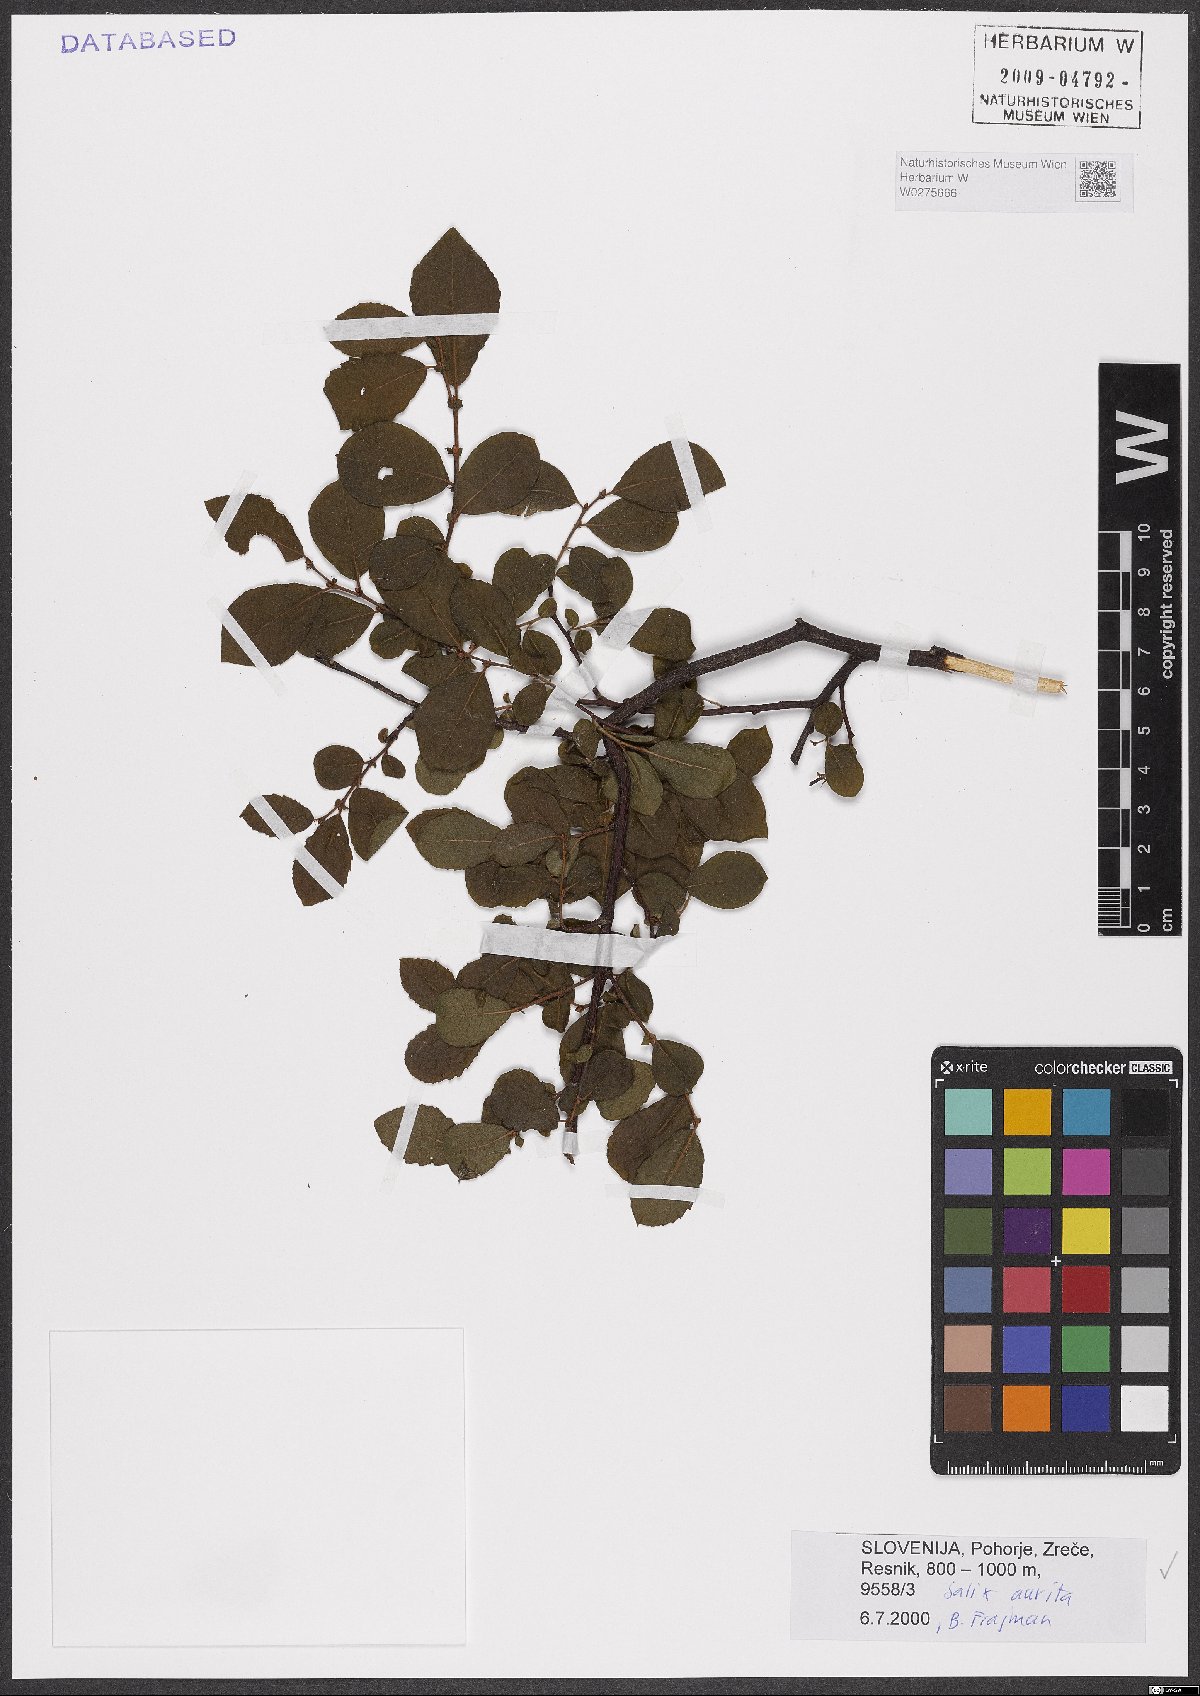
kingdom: Plantae
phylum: Tracheophyta
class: Magnoliopsida
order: Malpighiales
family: Salicaceae
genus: Salix
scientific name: Salix aurita
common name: Eared willow
